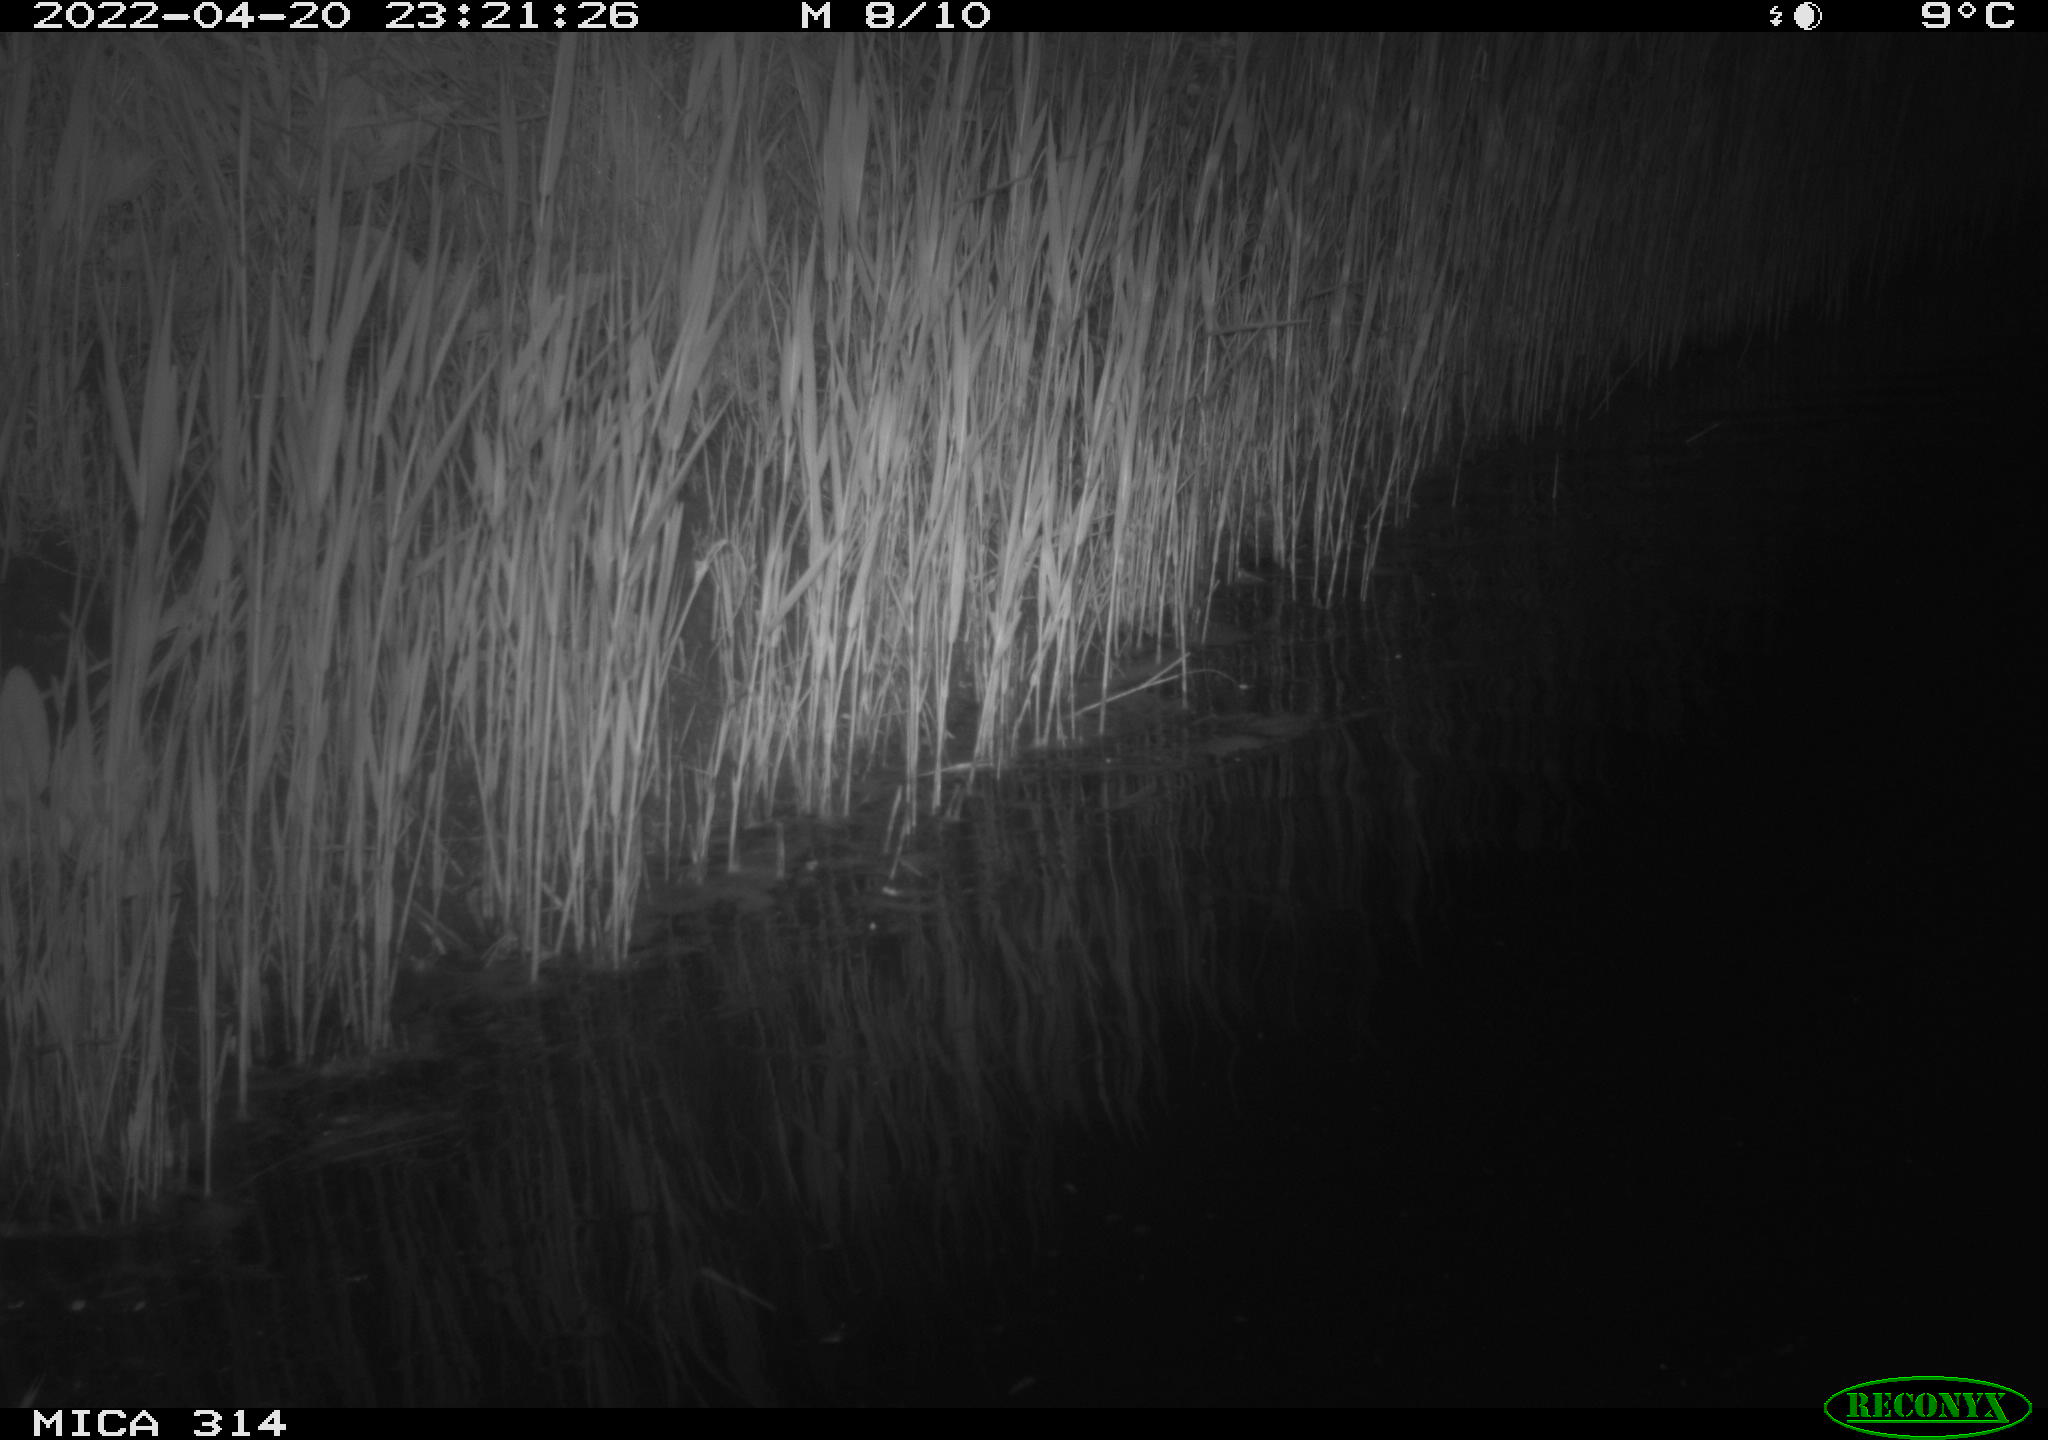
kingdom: Animalia
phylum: Chordata
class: Aves
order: Anseriformes
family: Anatidae
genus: Anas
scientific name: Anas platyrhynchos
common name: Mallard
